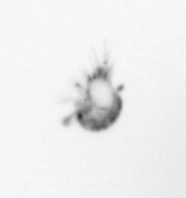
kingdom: Animalia
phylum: Arthropoda
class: Copepoda
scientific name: Copepoda
